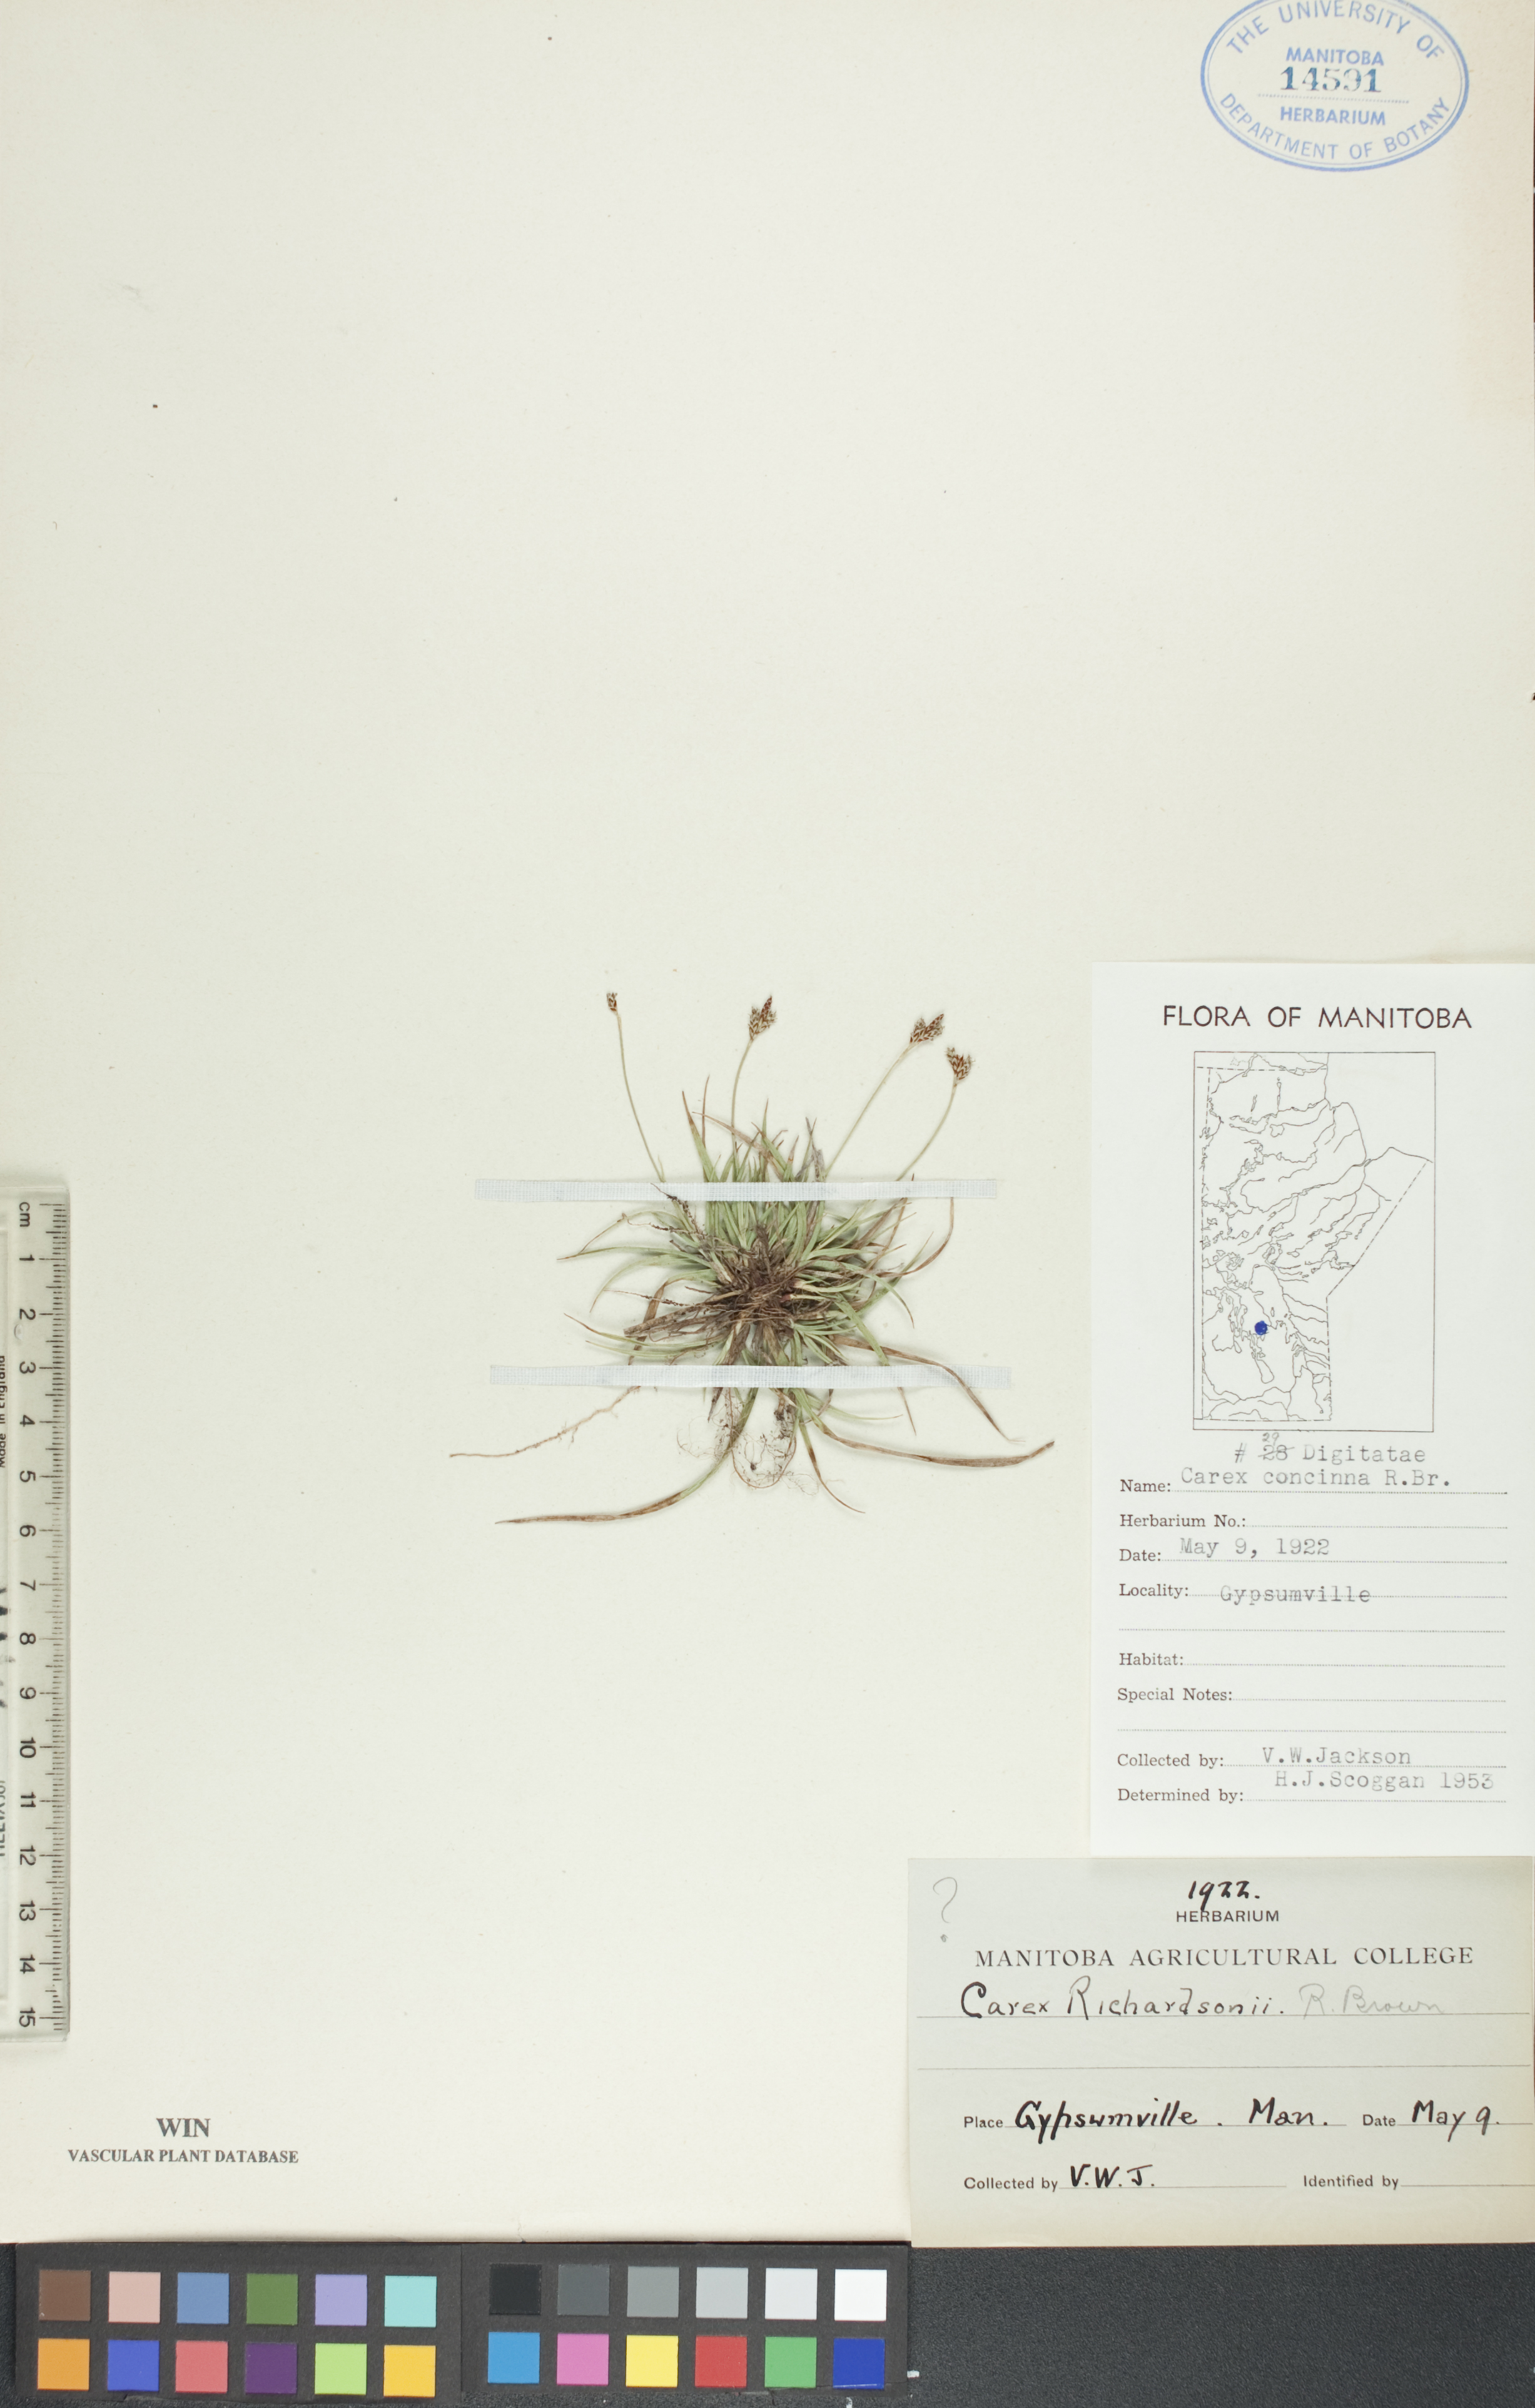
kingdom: Plantae
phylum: Tracheophyta
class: Liliopsida
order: Poales
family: Cyperaceae
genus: Carex
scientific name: Carex concinna
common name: Beautiful sedge
